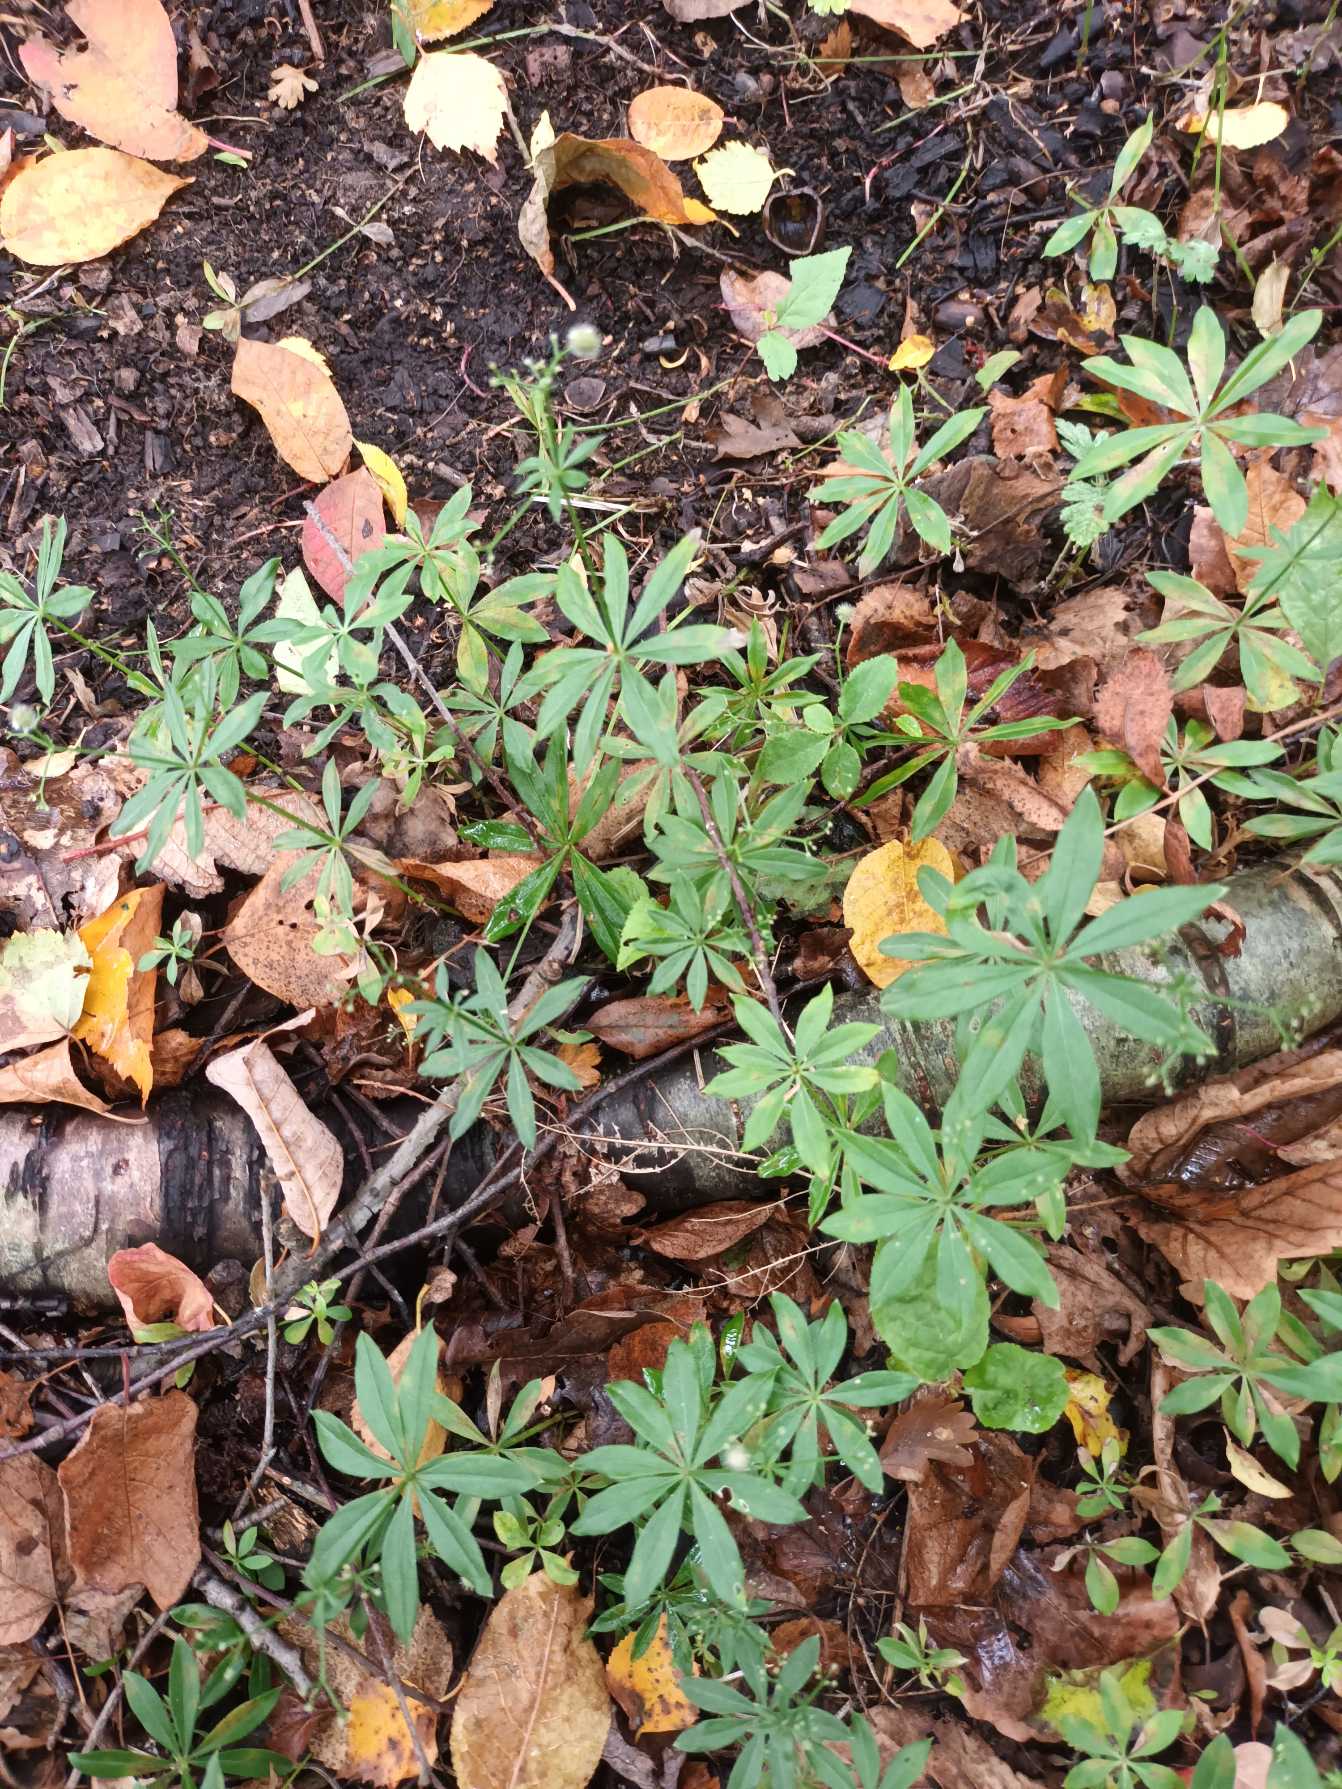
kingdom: Plantae
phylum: Tracheophyta
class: Magnoliopsida
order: Gentianales
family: Rubiaceae
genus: Galium
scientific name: Galium odoratum
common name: Skovmærke
